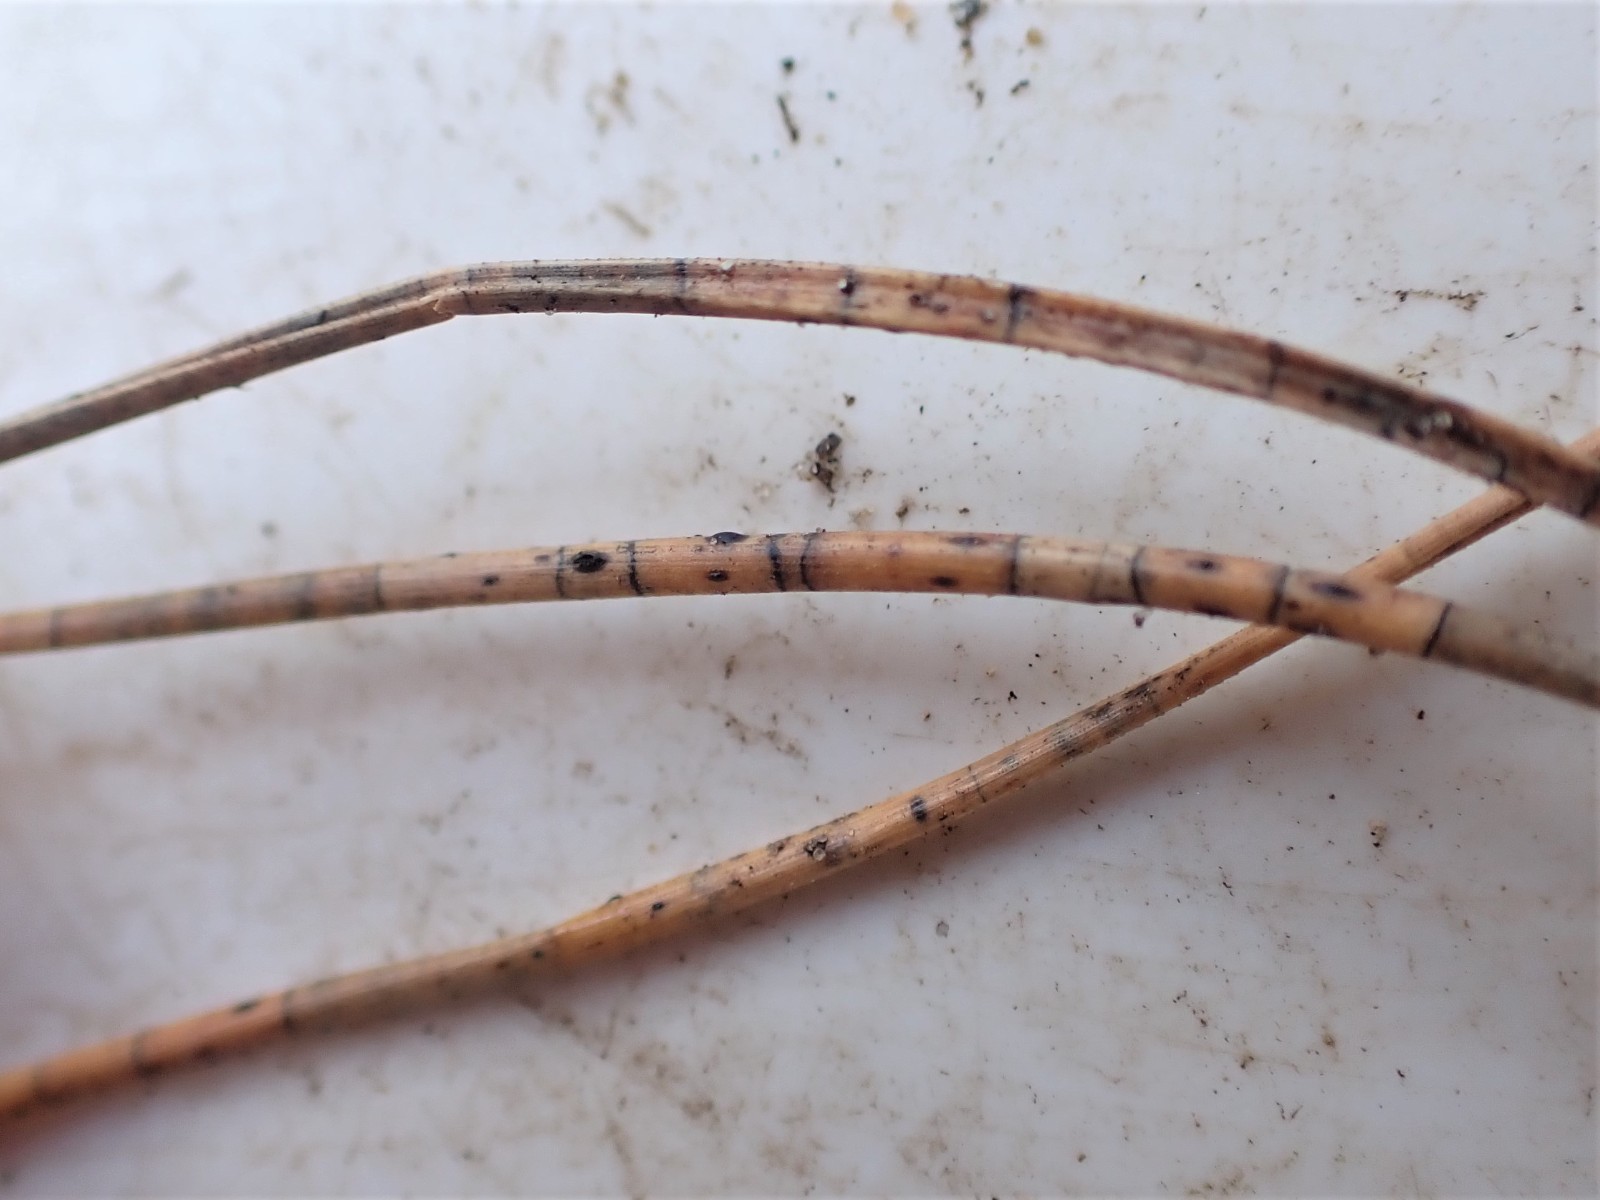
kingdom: Fungi
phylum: Ascomycota
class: Leotiomycetes
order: Rhytismatales
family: Rhytismataceae
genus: Lophodermium
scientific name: Lophodermium pinastri
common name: fyrre-fureplet
